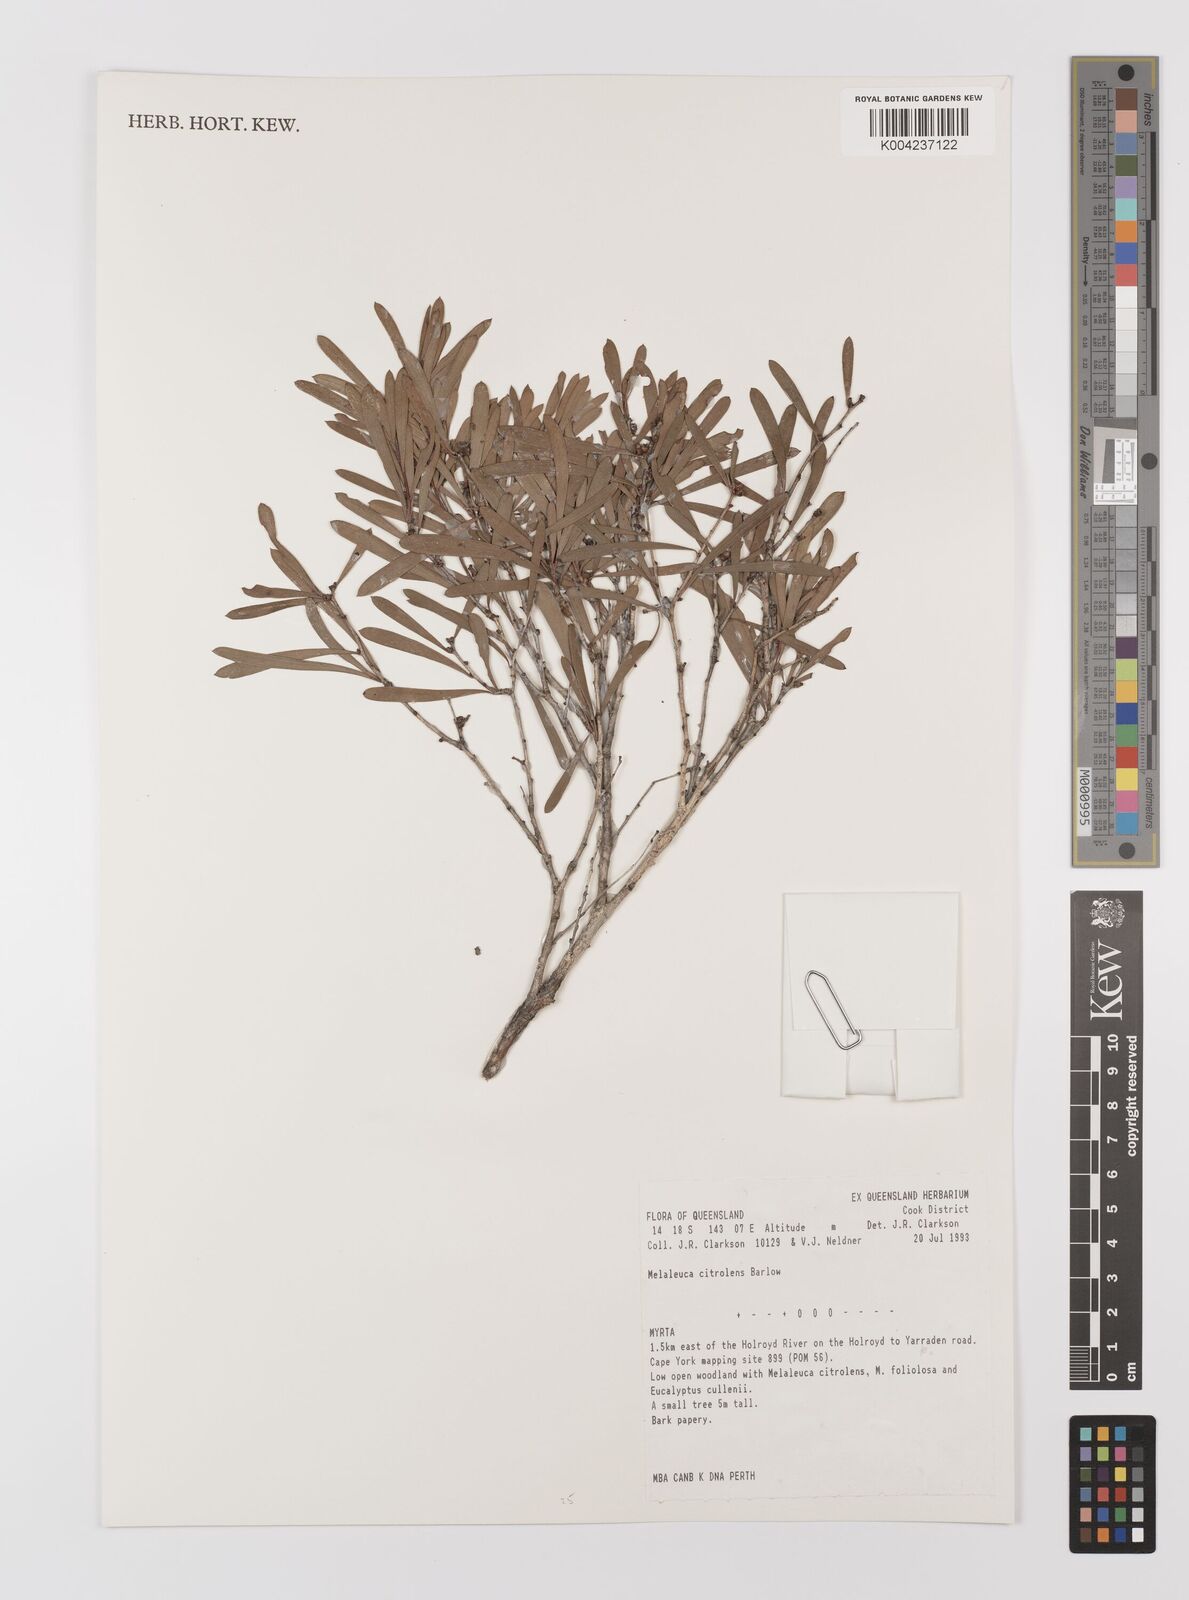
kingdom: Plantae
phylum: Tracheophyta
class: Magnoliopsida
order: Myrtales
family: Myrtaceae
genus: Melaleuca
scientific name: Melaleuca citrolens
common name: Lemon-scented paperbark
